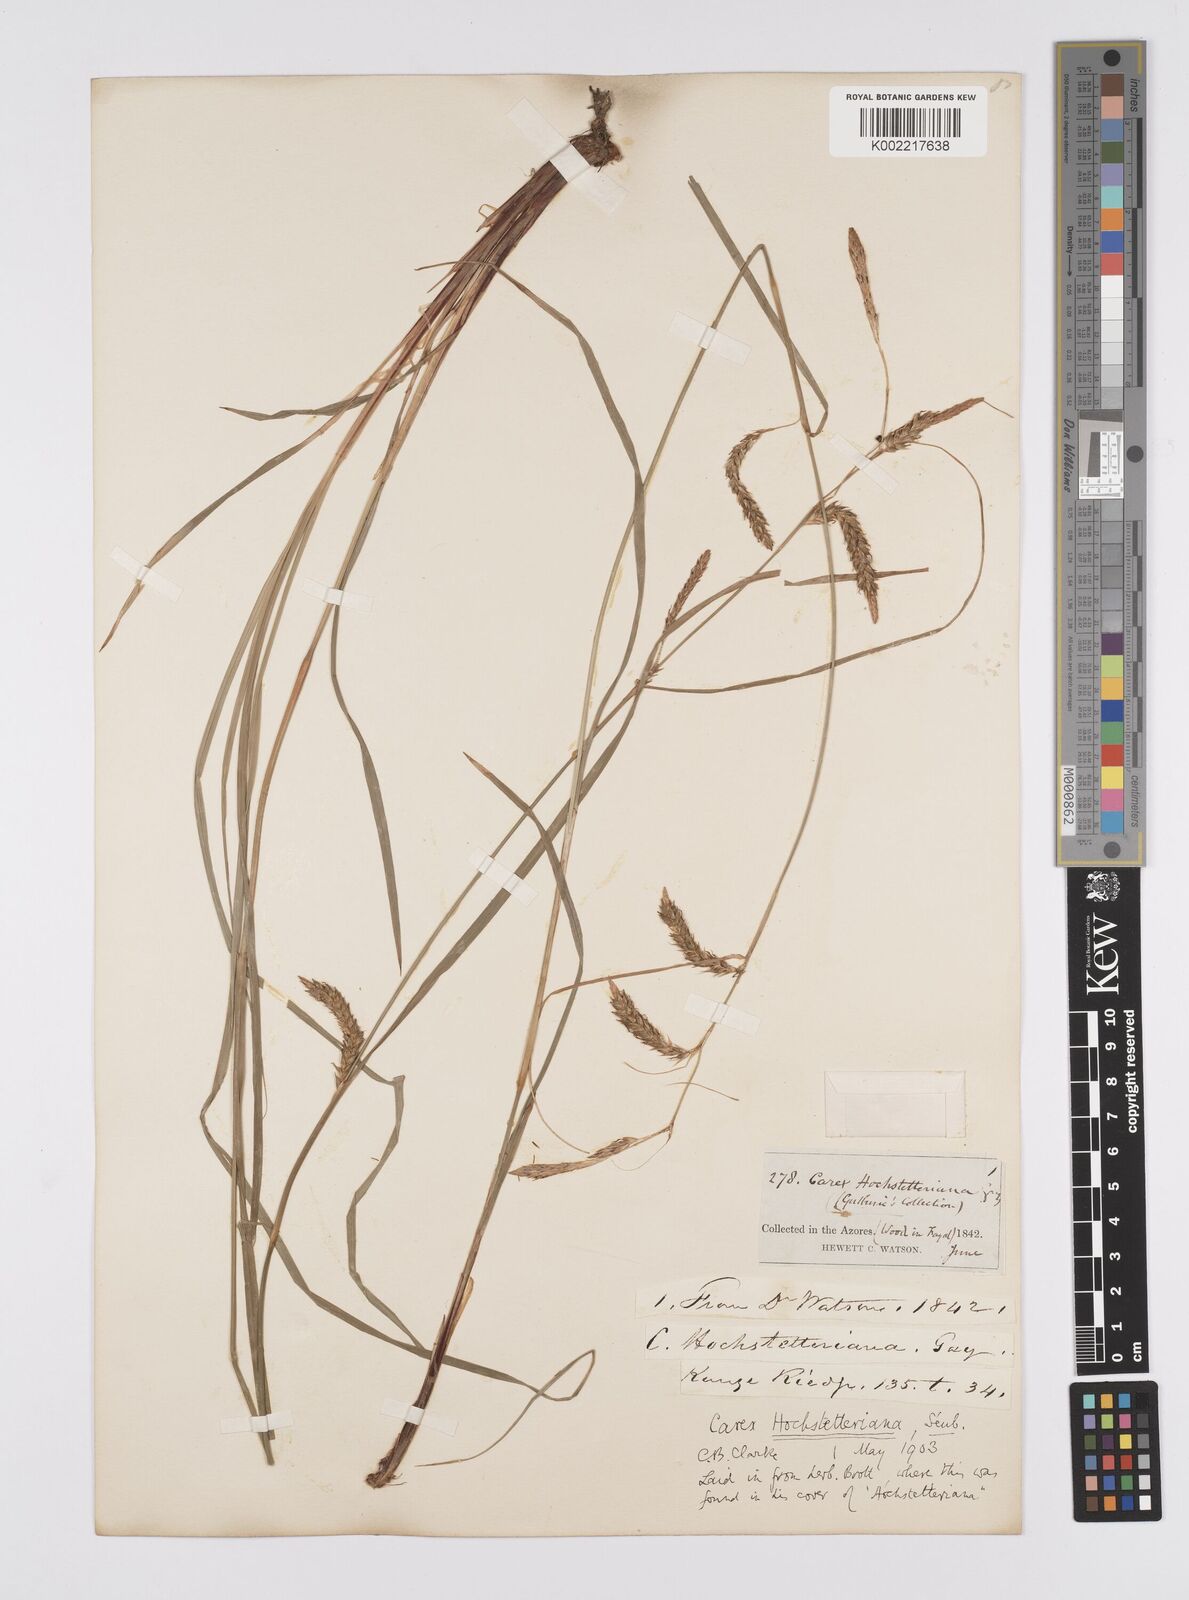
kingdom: Plantae
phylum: Tracheophyta
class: Liliopsida
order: Poales
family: Cyperaceae
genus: Carex
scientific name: Carex hochstetteriana
